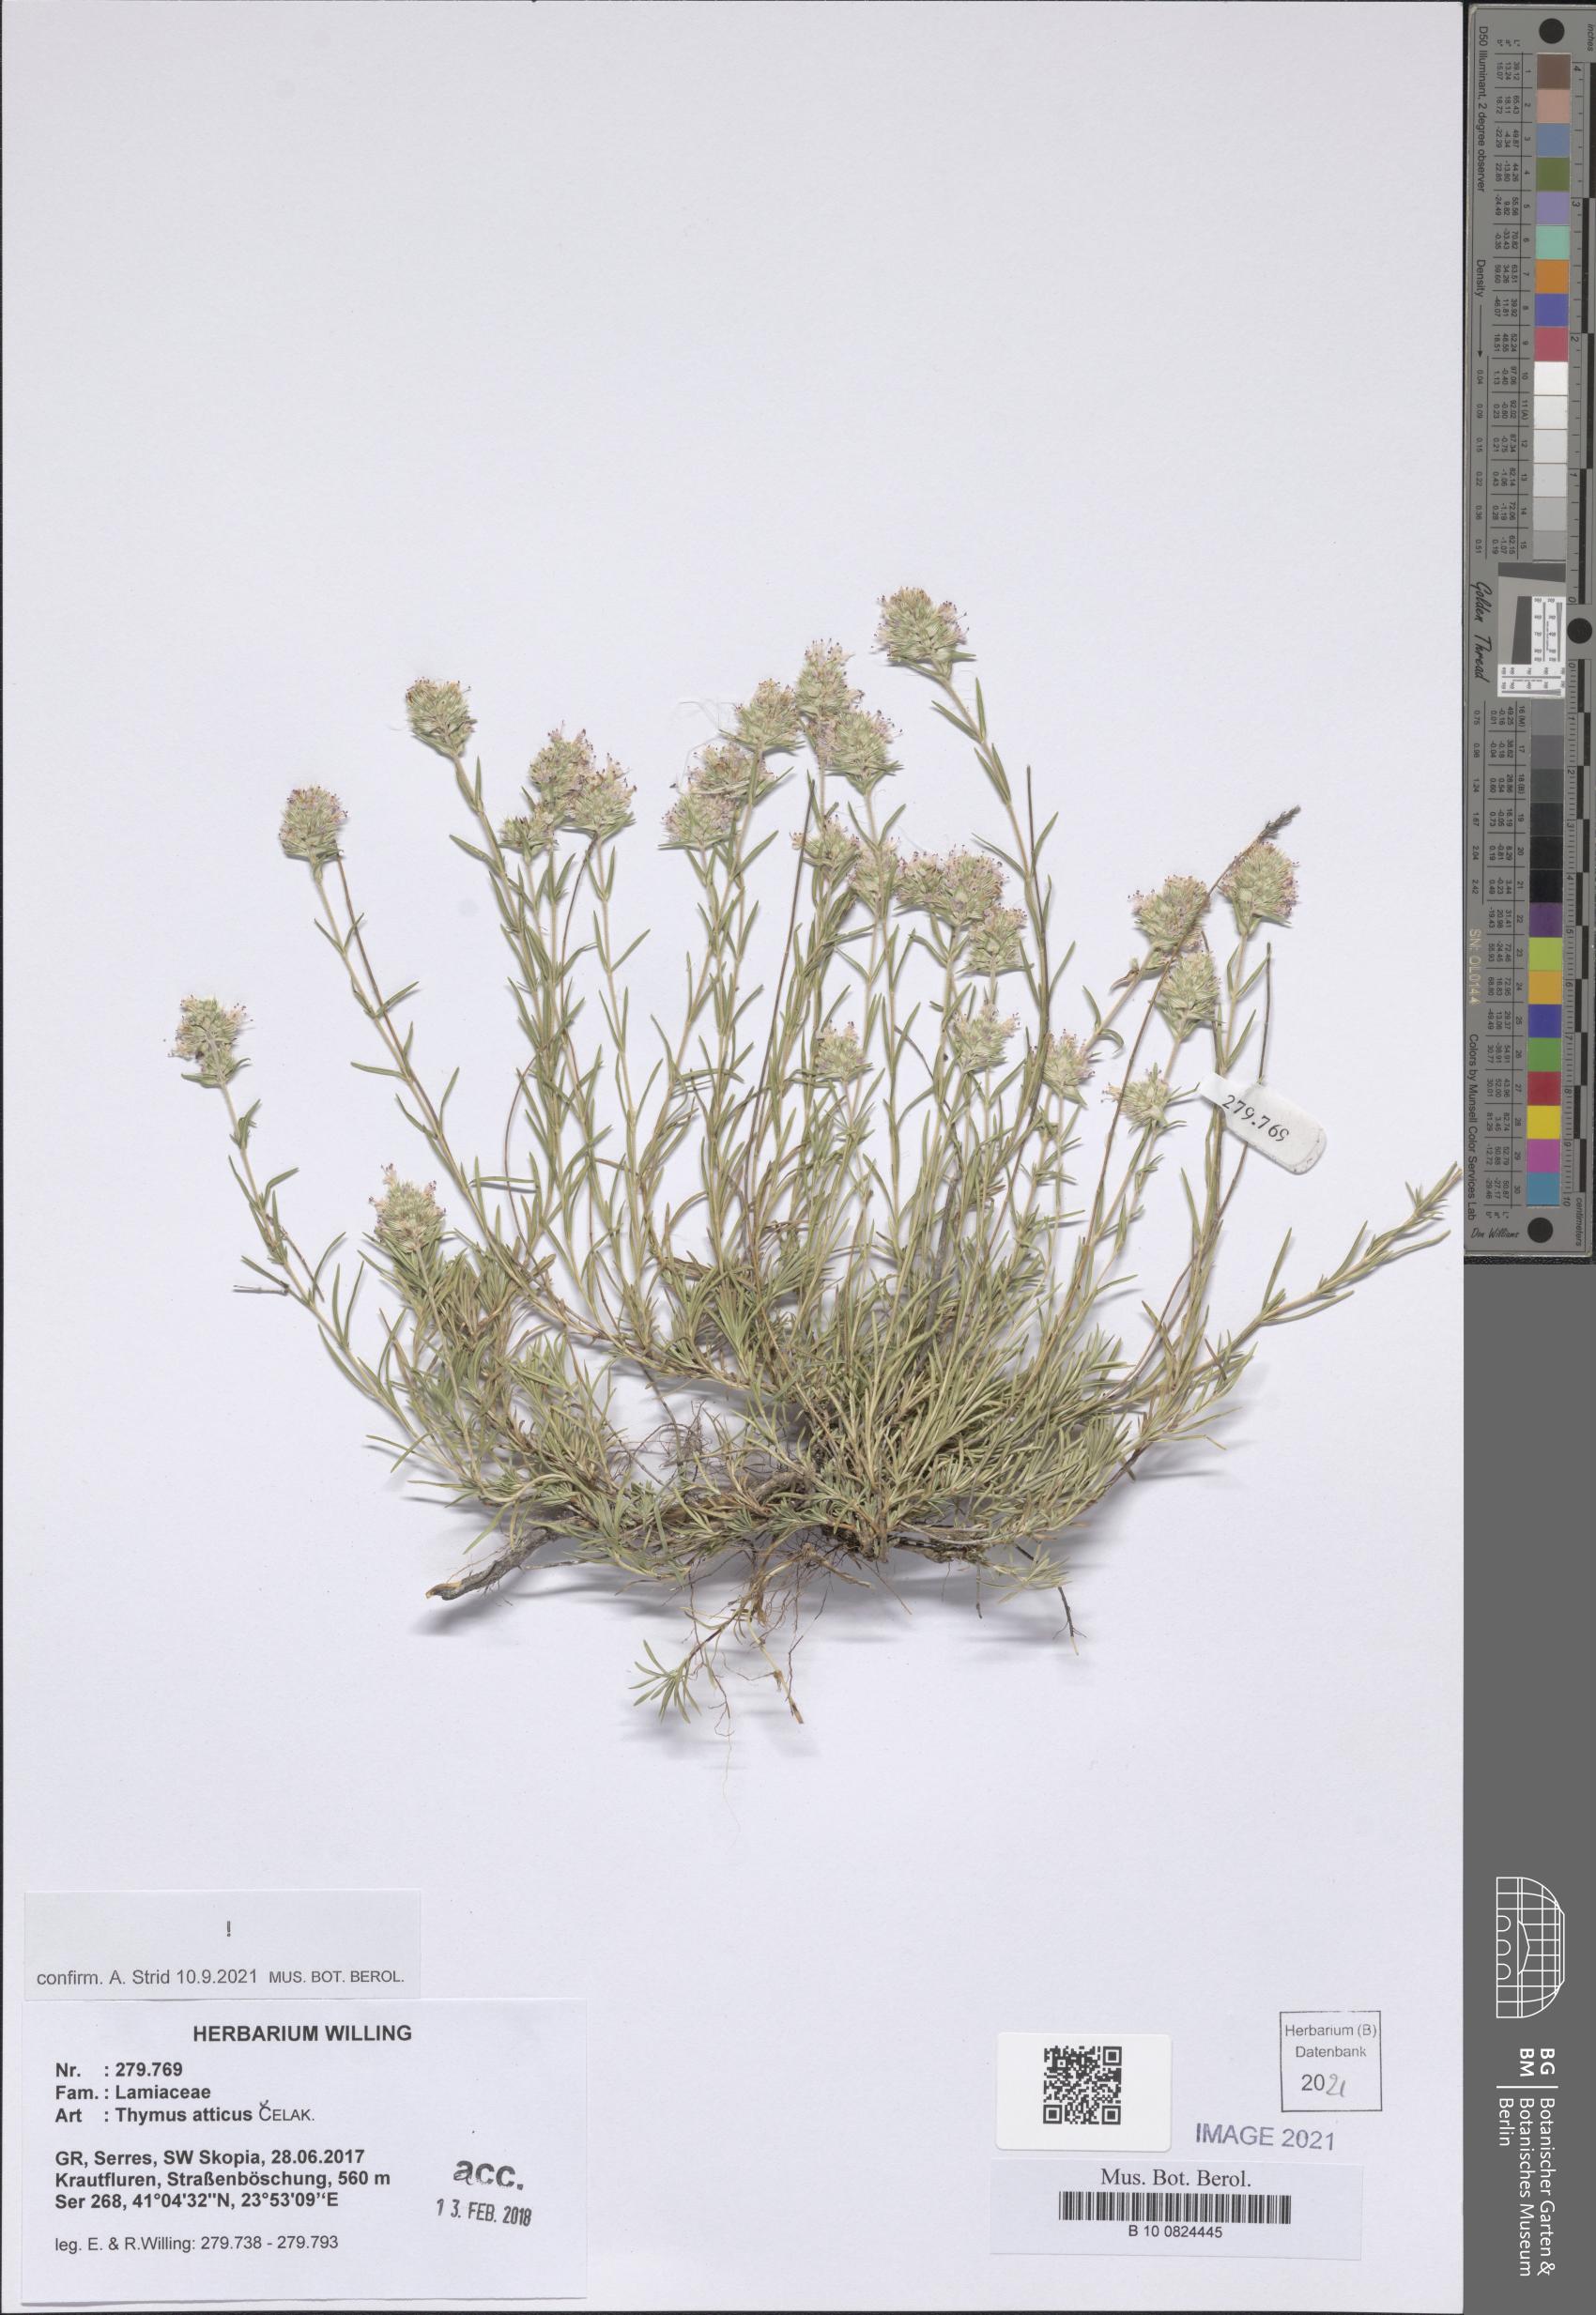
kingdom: Plantae
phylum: Tracheophyta
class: Magnoliopsida
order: Lamiales
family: Lamiaceae
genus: Thymus
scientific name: Thymus atticus
